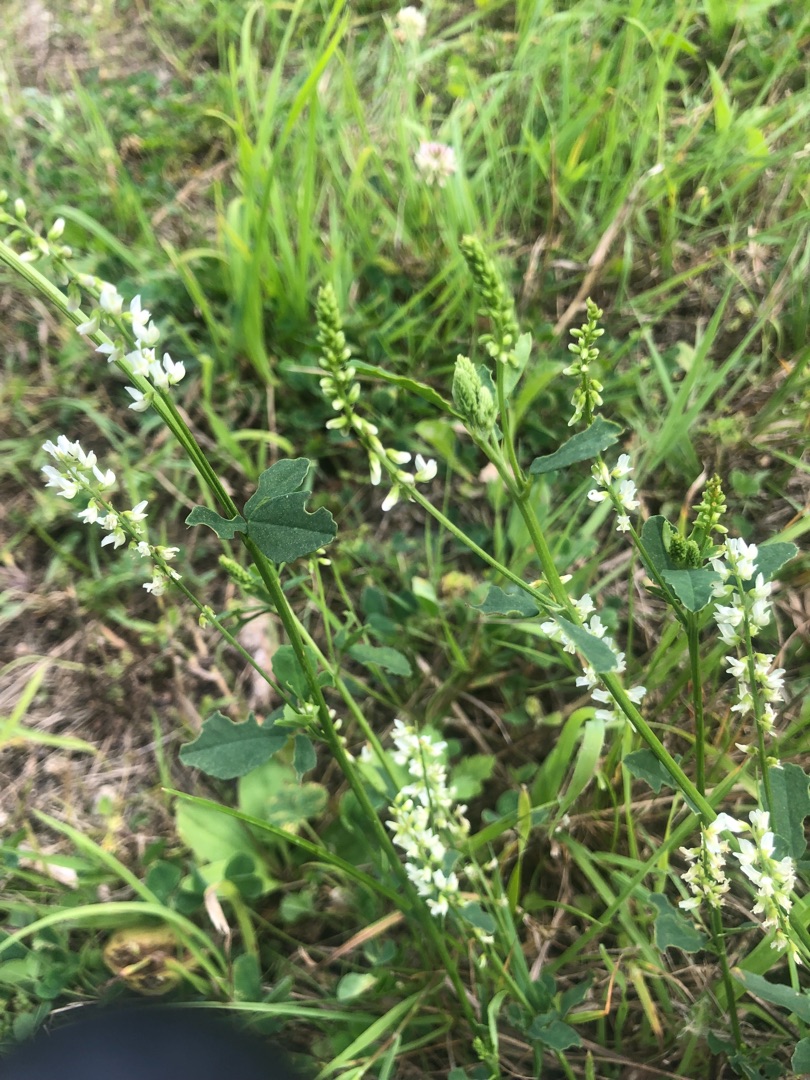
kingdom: Plantae
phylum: Tracheophyta
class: Magnoliopsida
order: Fabales
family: Fabaceae
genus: Melilotus
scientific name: Melilotus albus
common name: Hvid stenkløver
